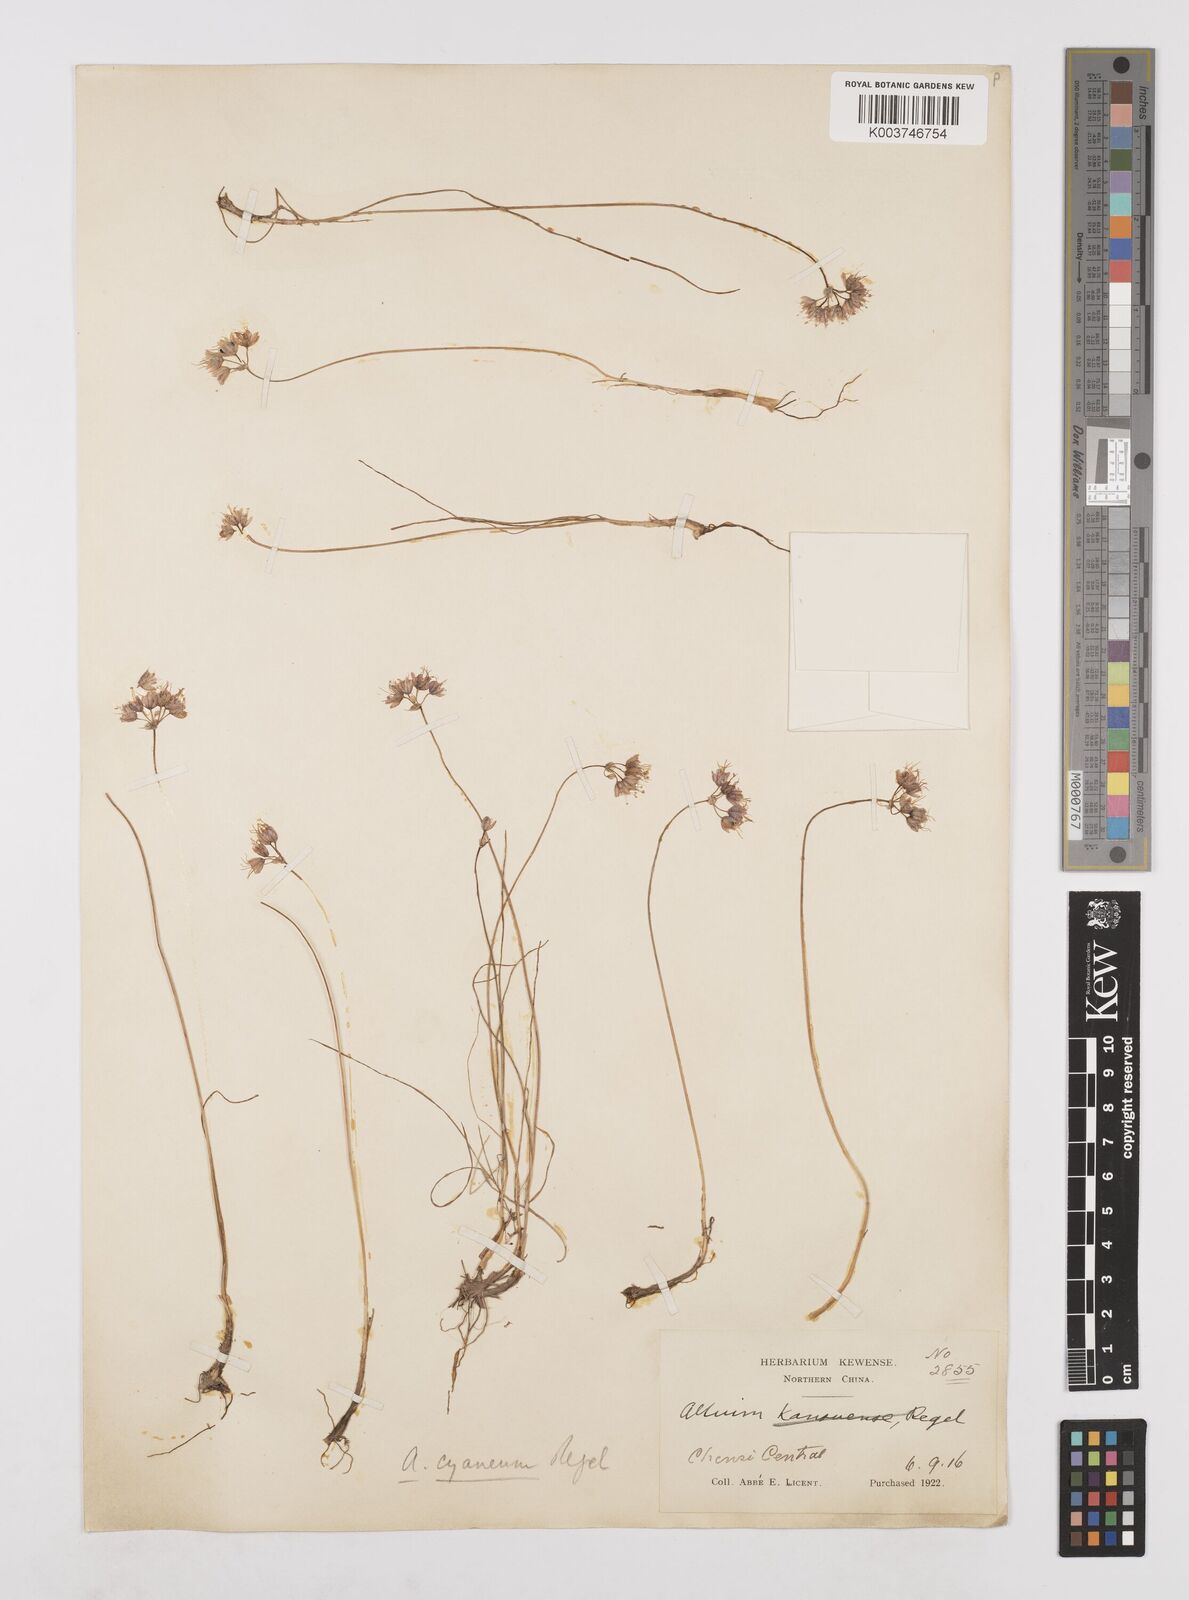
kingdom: Plantae
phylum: Tracheophyta
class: Liliopsida
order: Asparagales
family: Amaryllidaceae
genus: Allium
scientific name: Allium cyaneum
